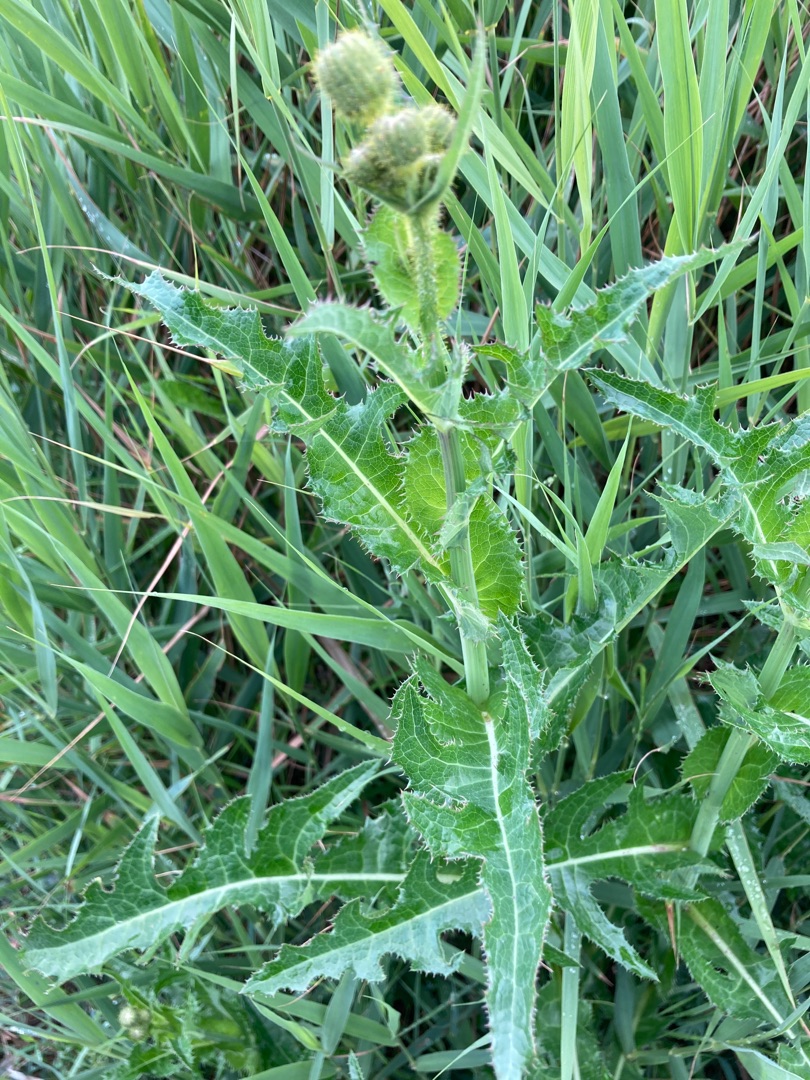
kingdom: Plantae
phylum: Tracheophyta
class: Magnoliopsida
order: Asterales
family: Asteraceae
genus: Sonchus
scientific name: Sonchus arvensis
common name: Ager-svinemælk
